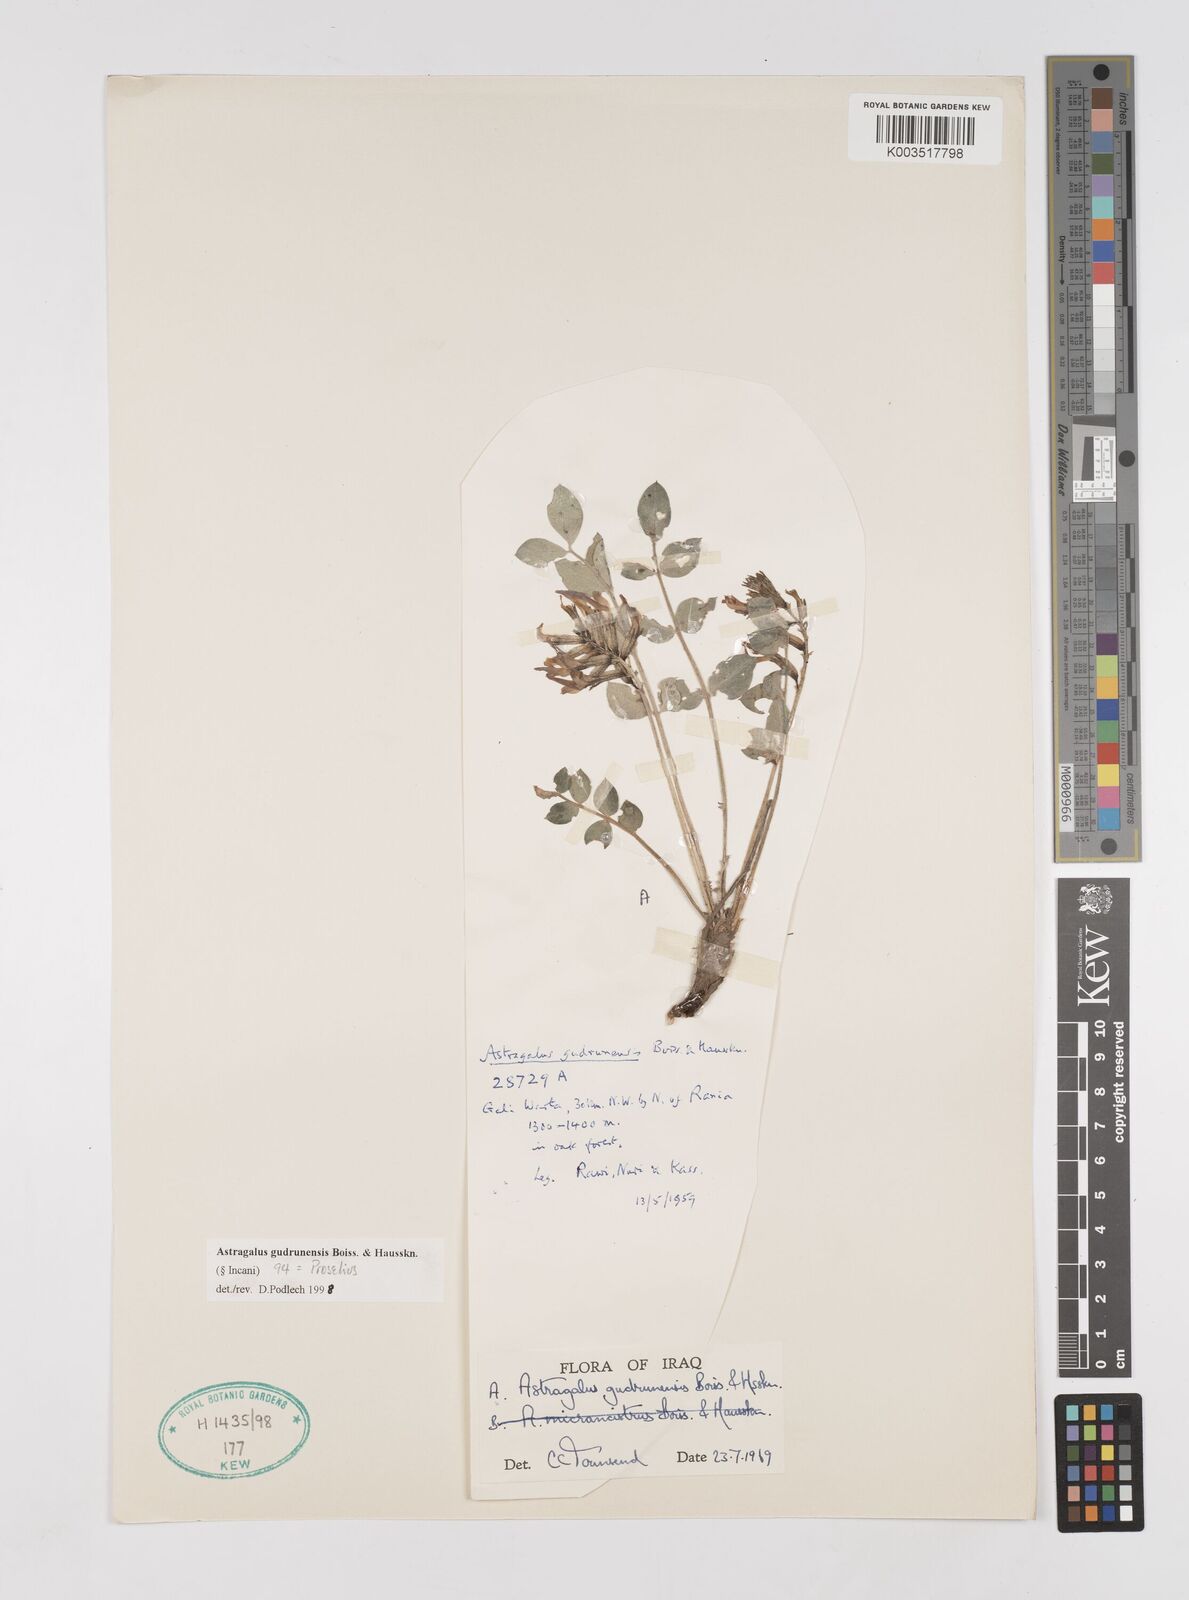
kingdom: Plantae
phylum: Tracheophyta
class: Magnoliopsida
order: Fabales
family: Fabaceae
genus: Astragalus
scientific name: Astragalus gudrunensis
